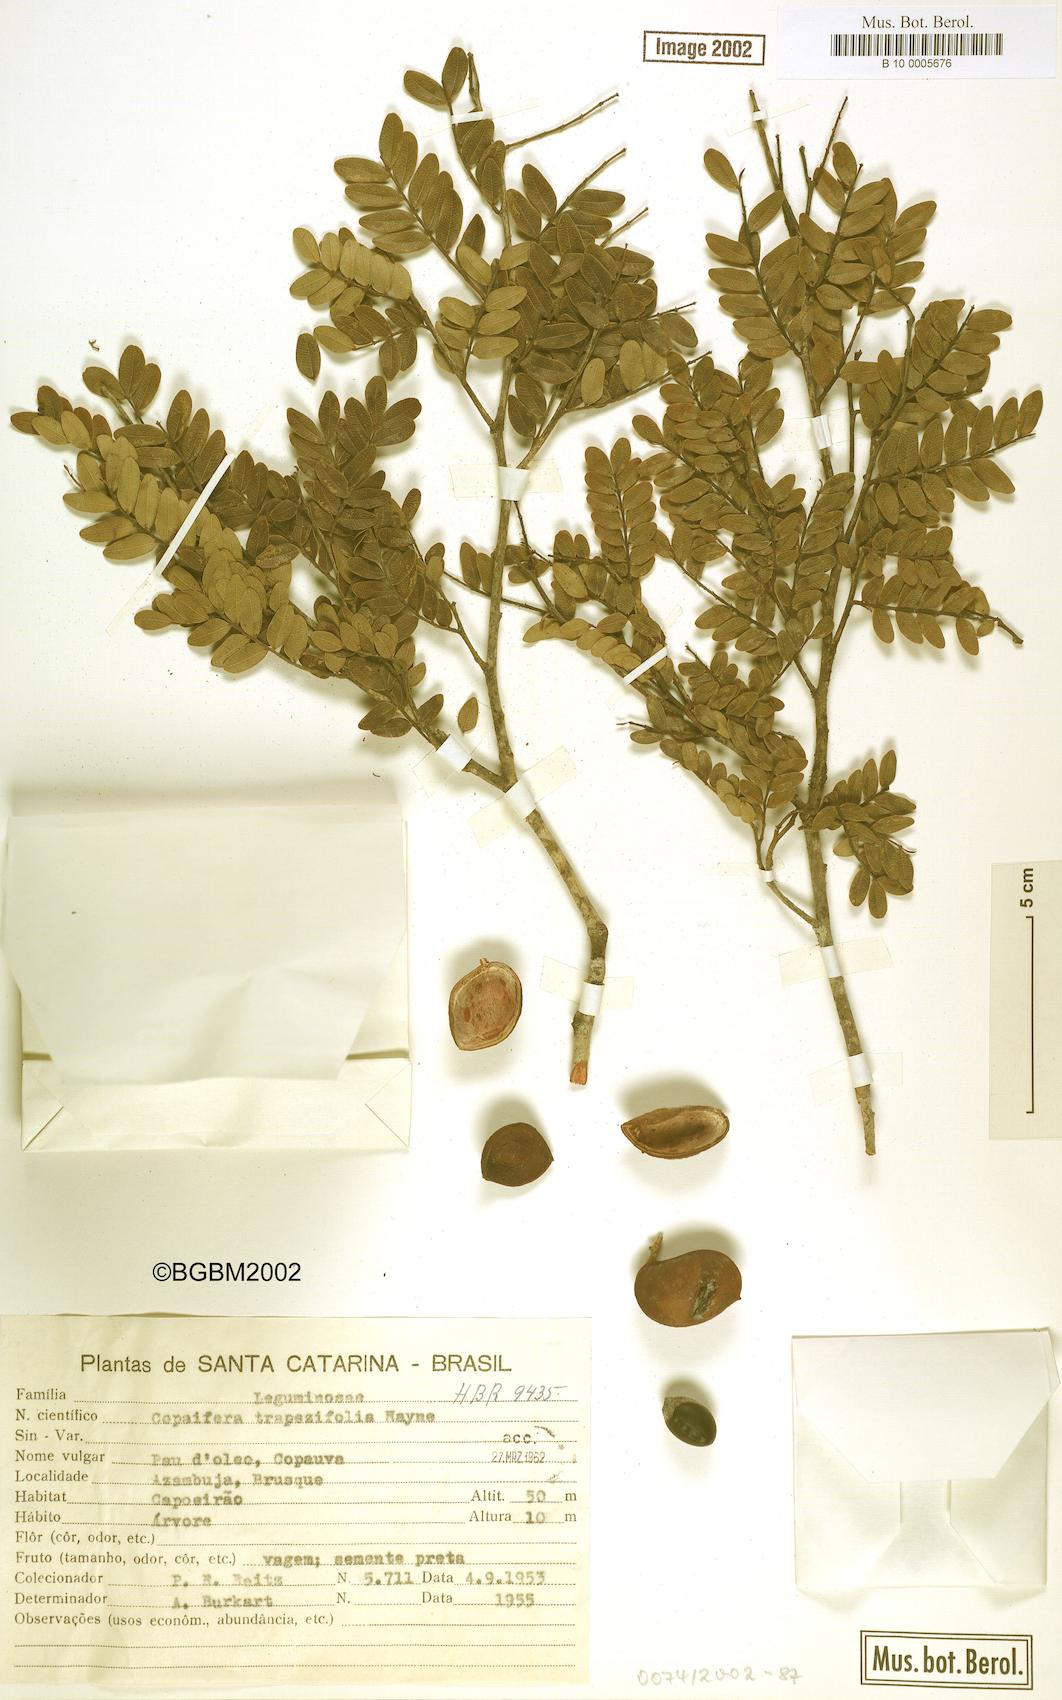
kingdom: Plantae
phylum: Tracheophyta
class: Magnoliopsida
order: Fabales
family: Fabaceae
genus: Copaifera
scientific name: Copaifera trapezifolia
